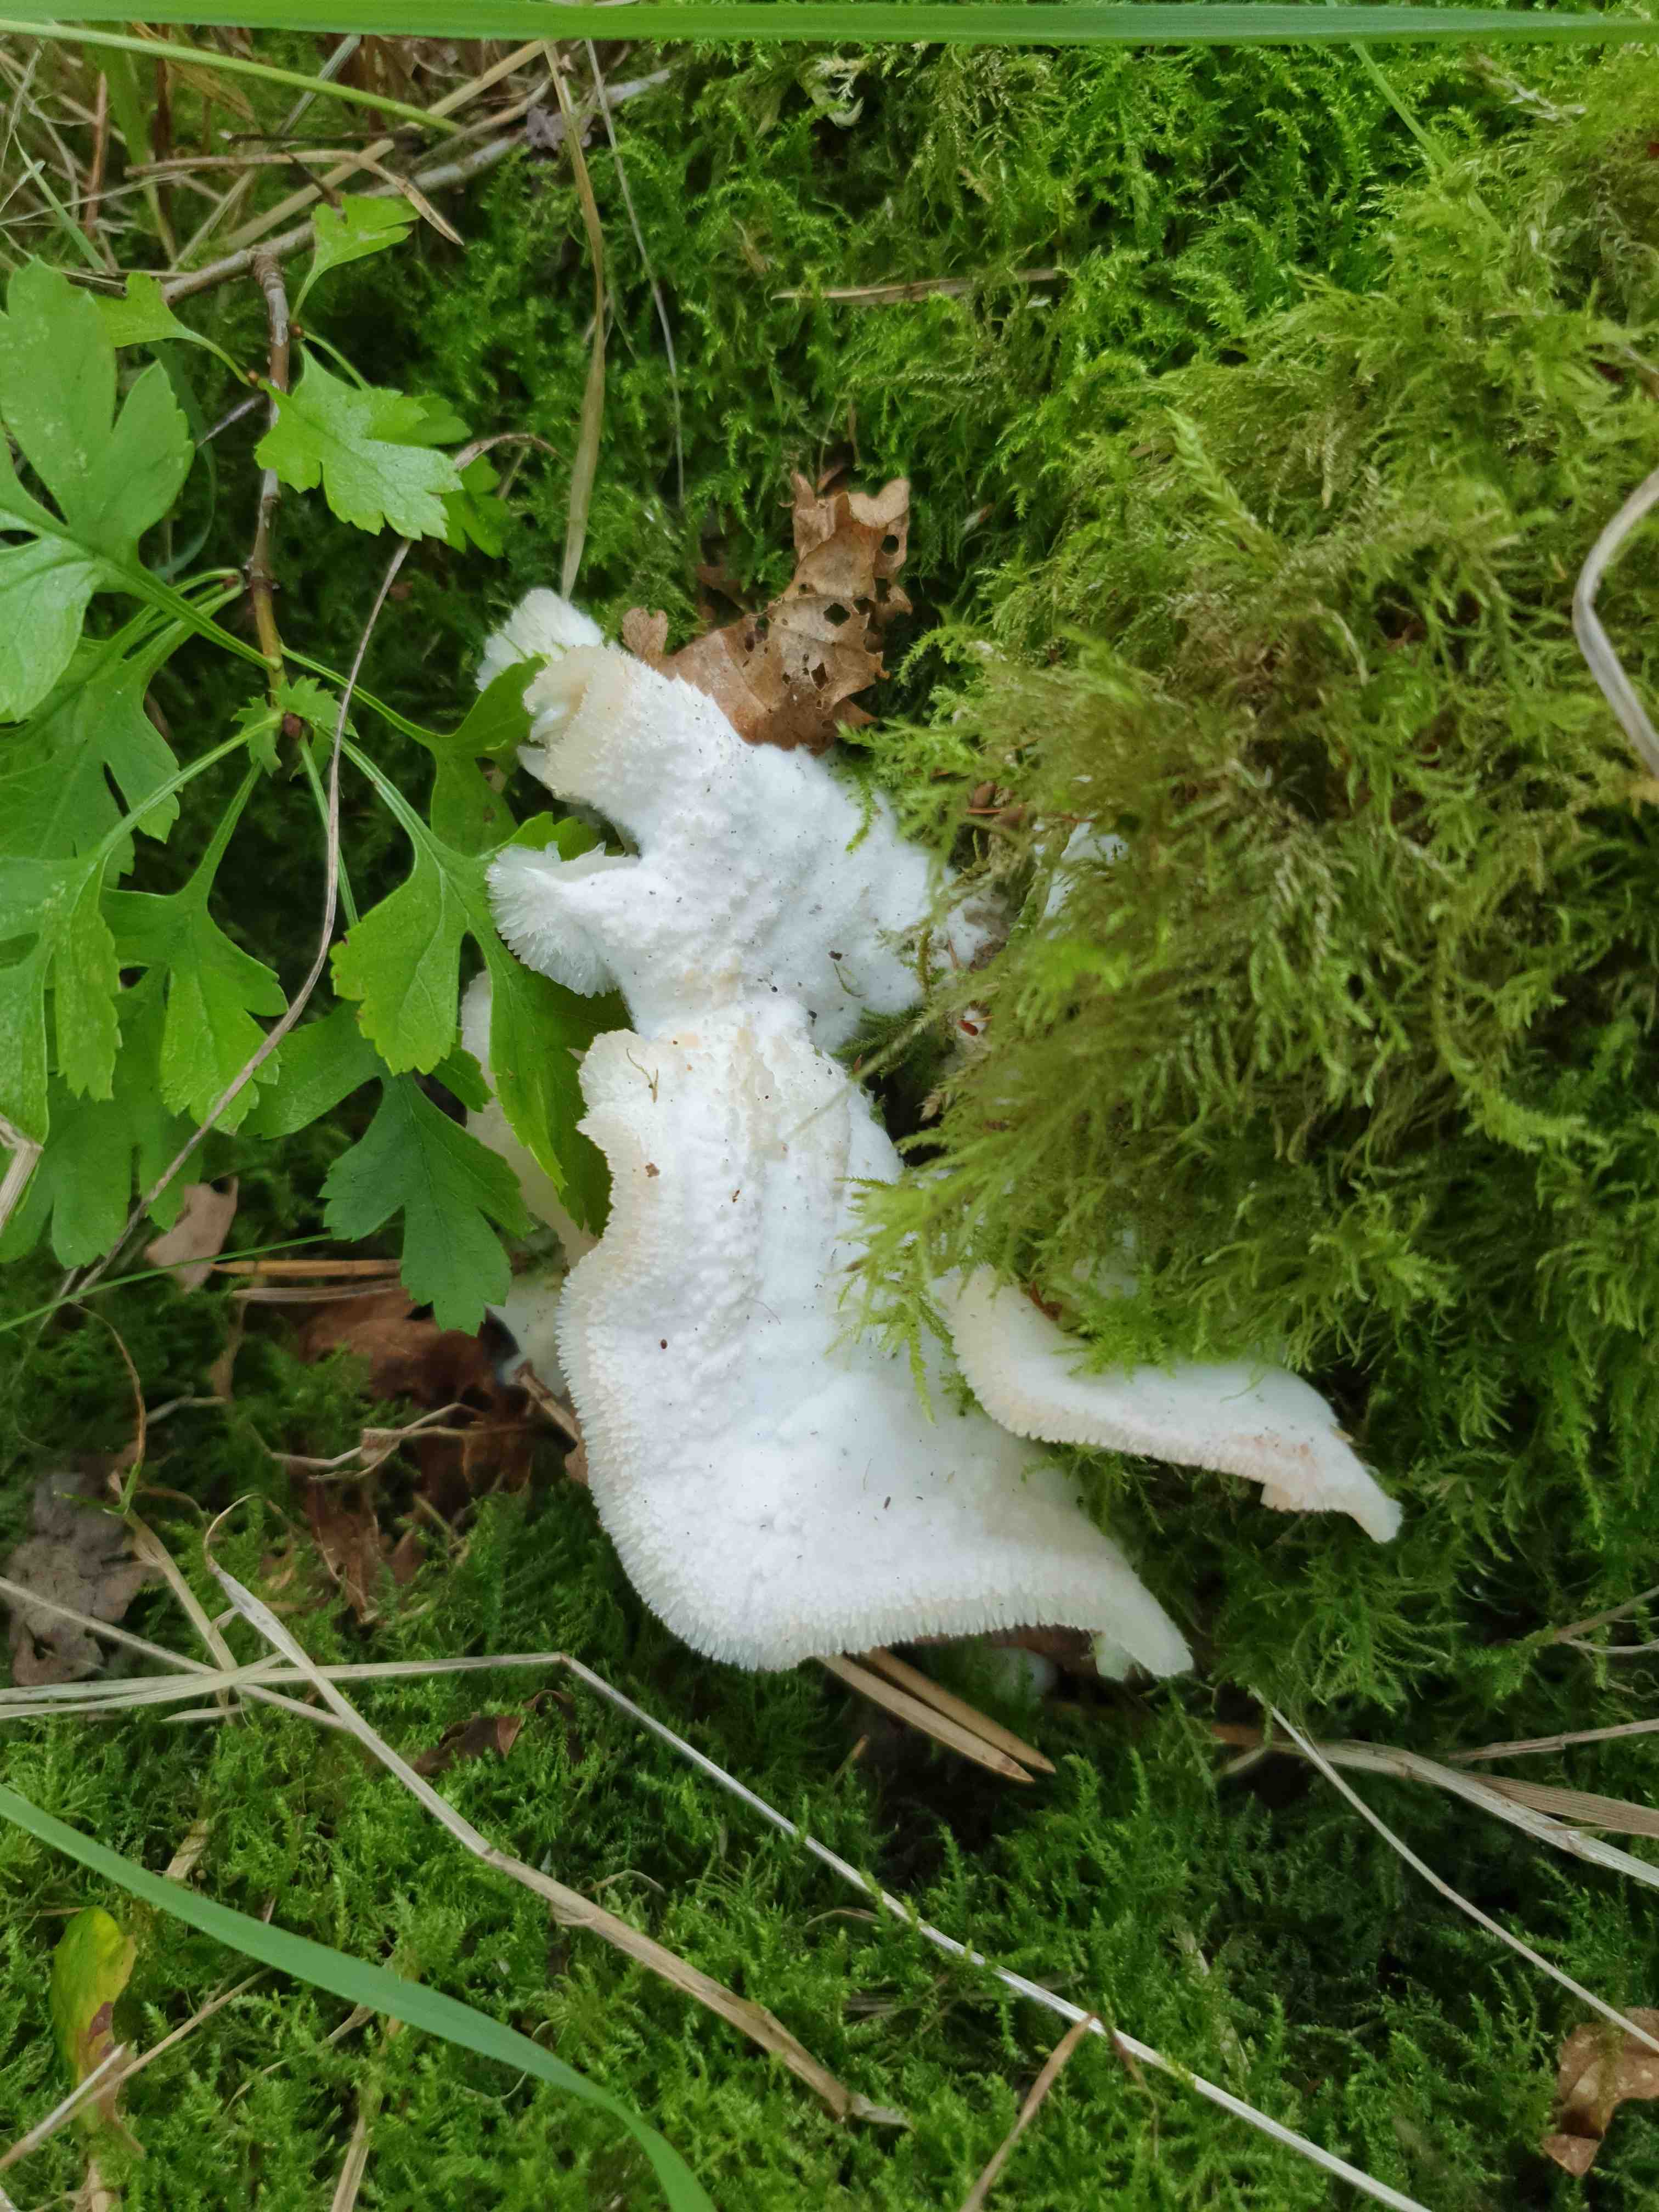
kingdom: Fungi
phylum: Basidiomycota
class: Agaricomycetes
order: Polyporales
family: Meruliaceae
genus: Phlebia
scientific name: Phlebia tremellosa
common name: bævrende åresvamp
